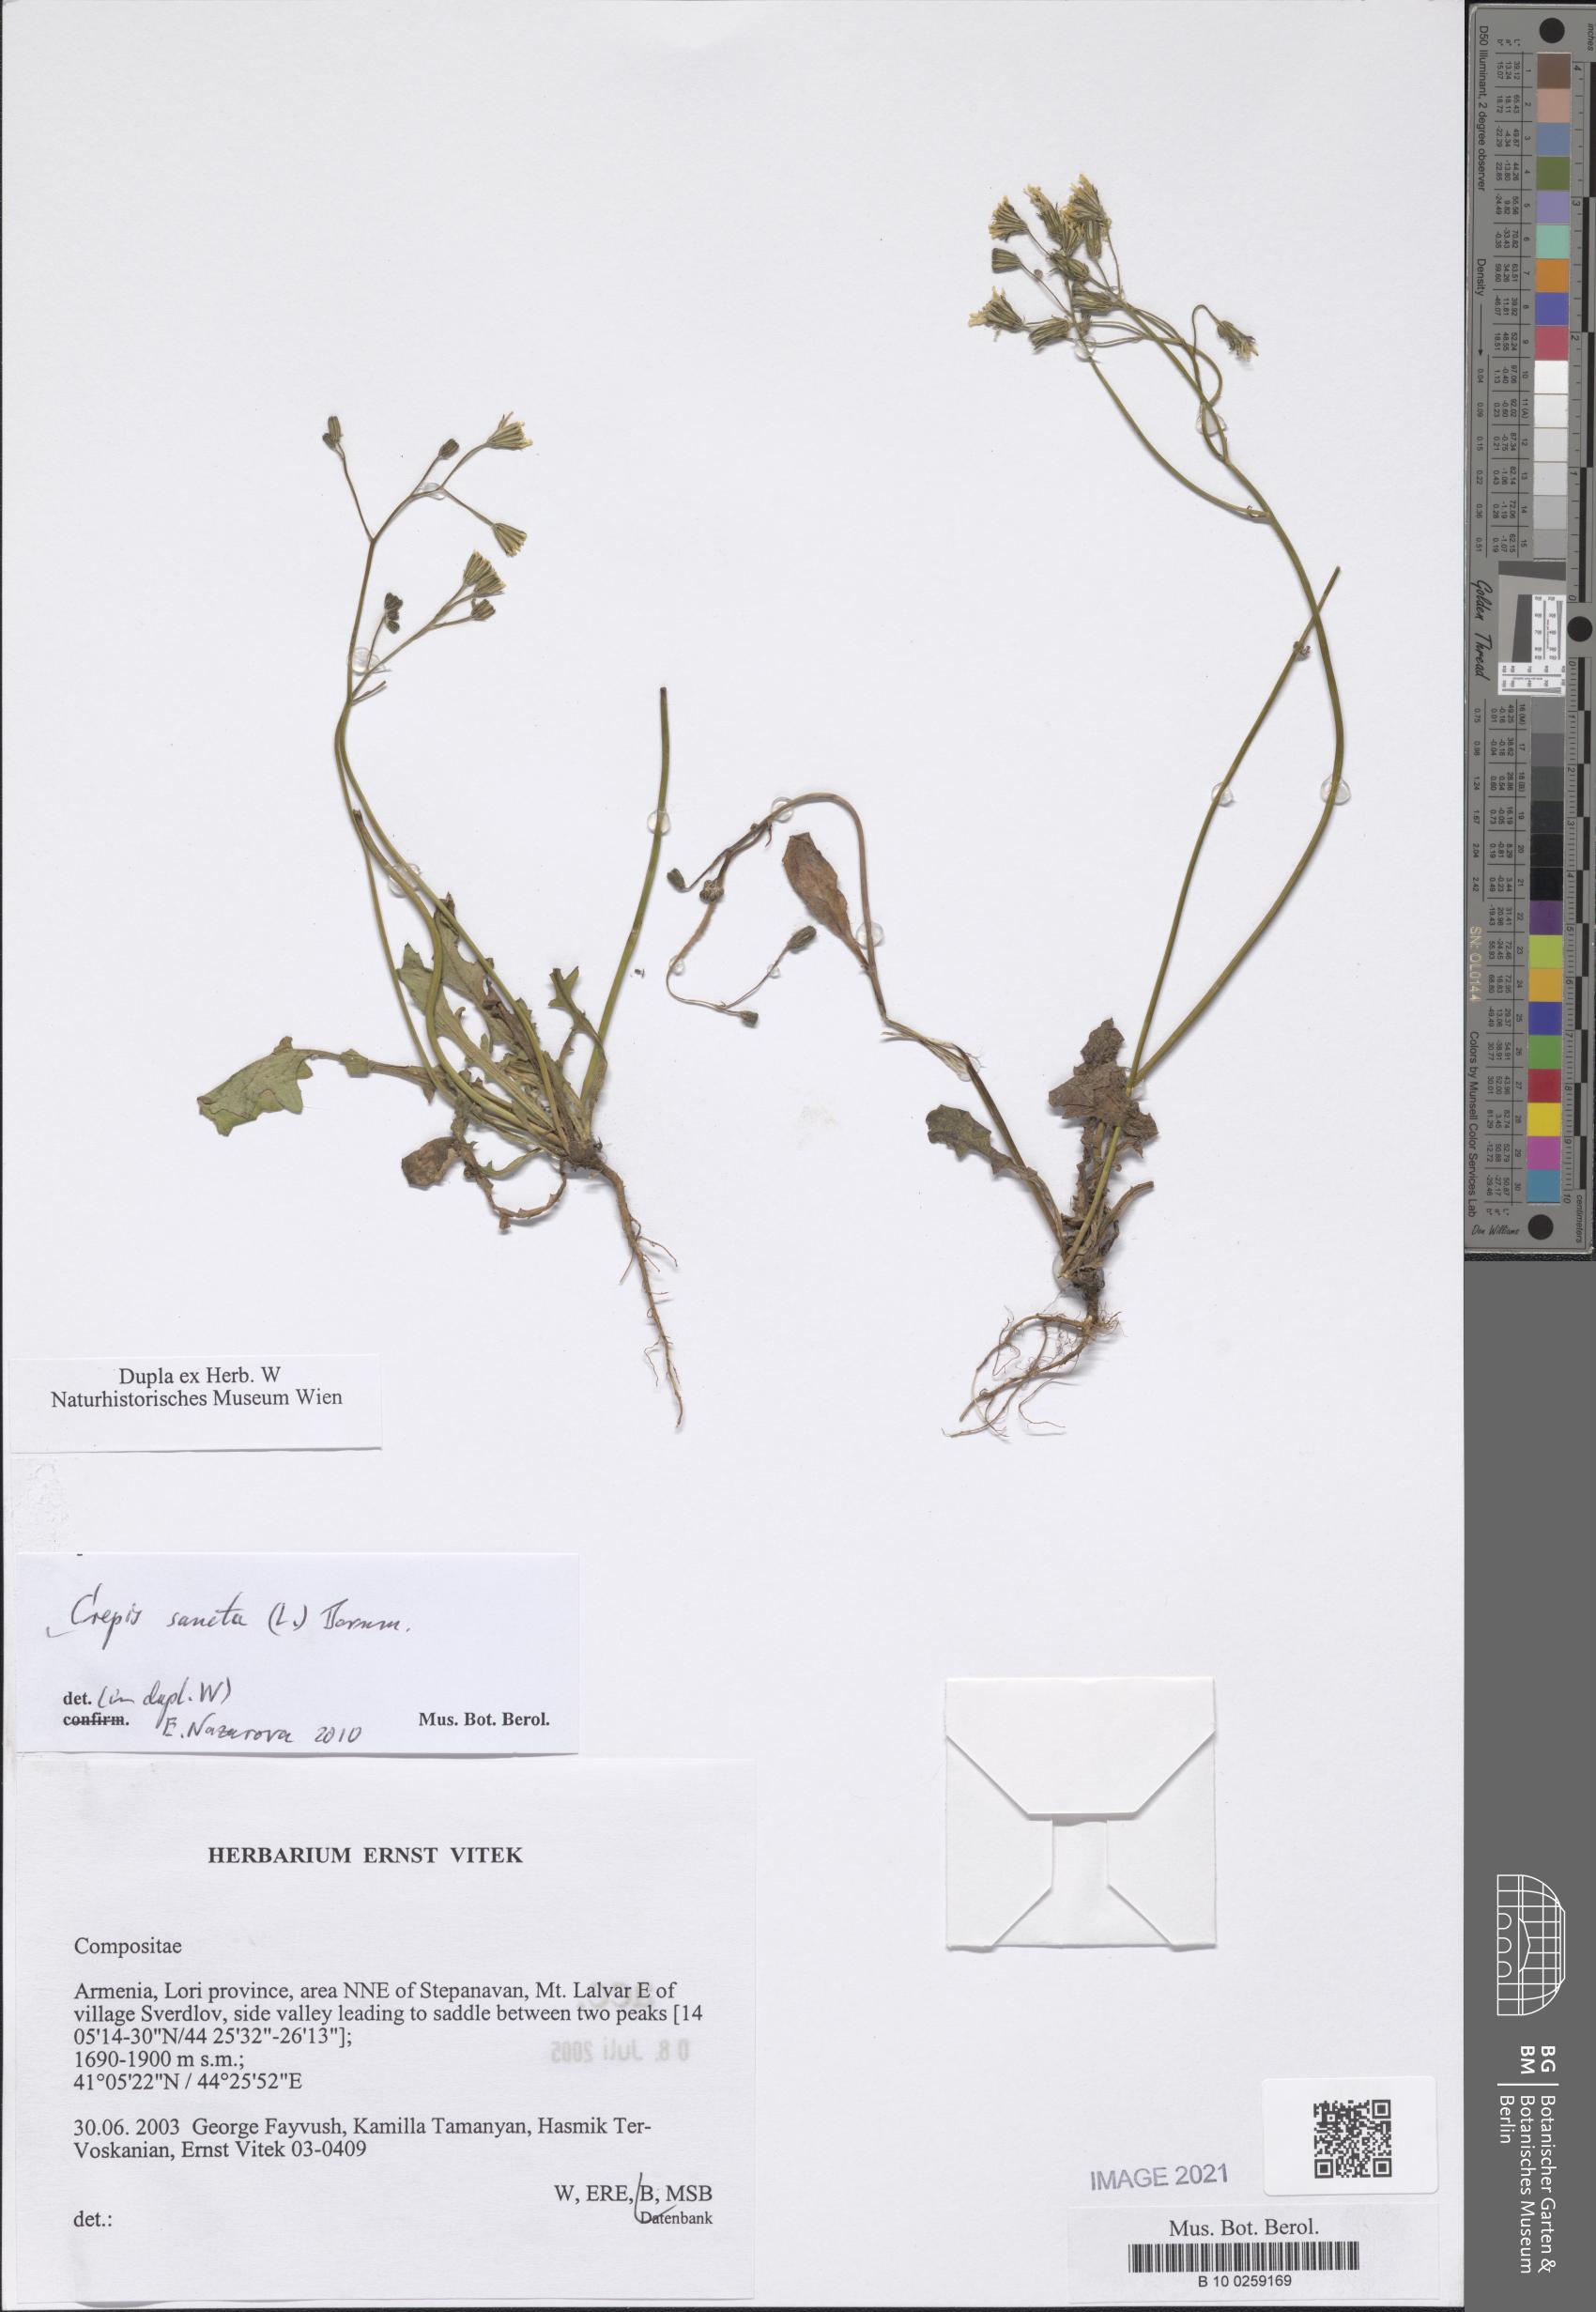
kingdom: Plantae
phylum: Tracheophyta
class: Magnoliopsida
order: Asterales
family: Asteraceae
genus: Crepis
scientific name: Crepis sancta
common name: Hawk's-beard
